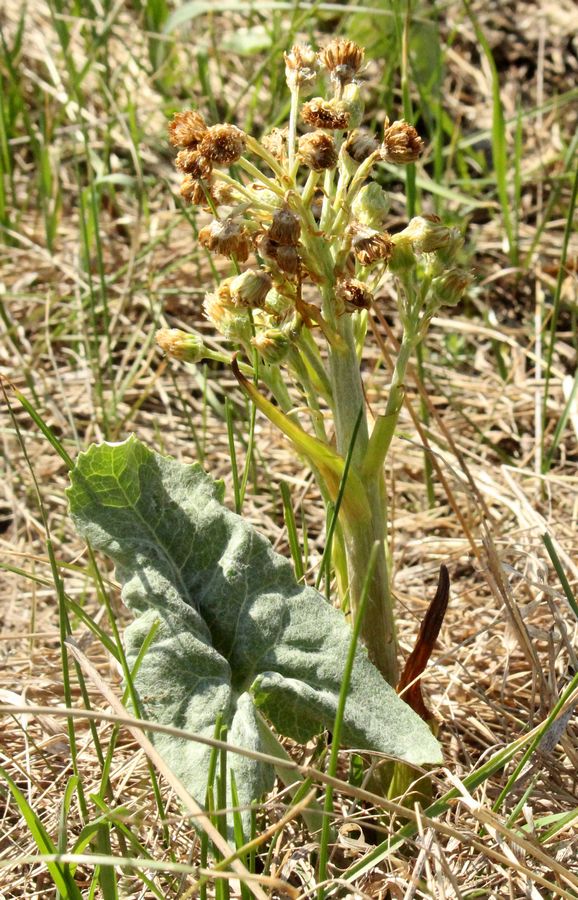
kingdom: Plantae
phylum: Tracheophyta
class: Magnoliopsida
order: Asterales
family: Asteraceae
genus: Petasites
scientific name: Petasites spurius
